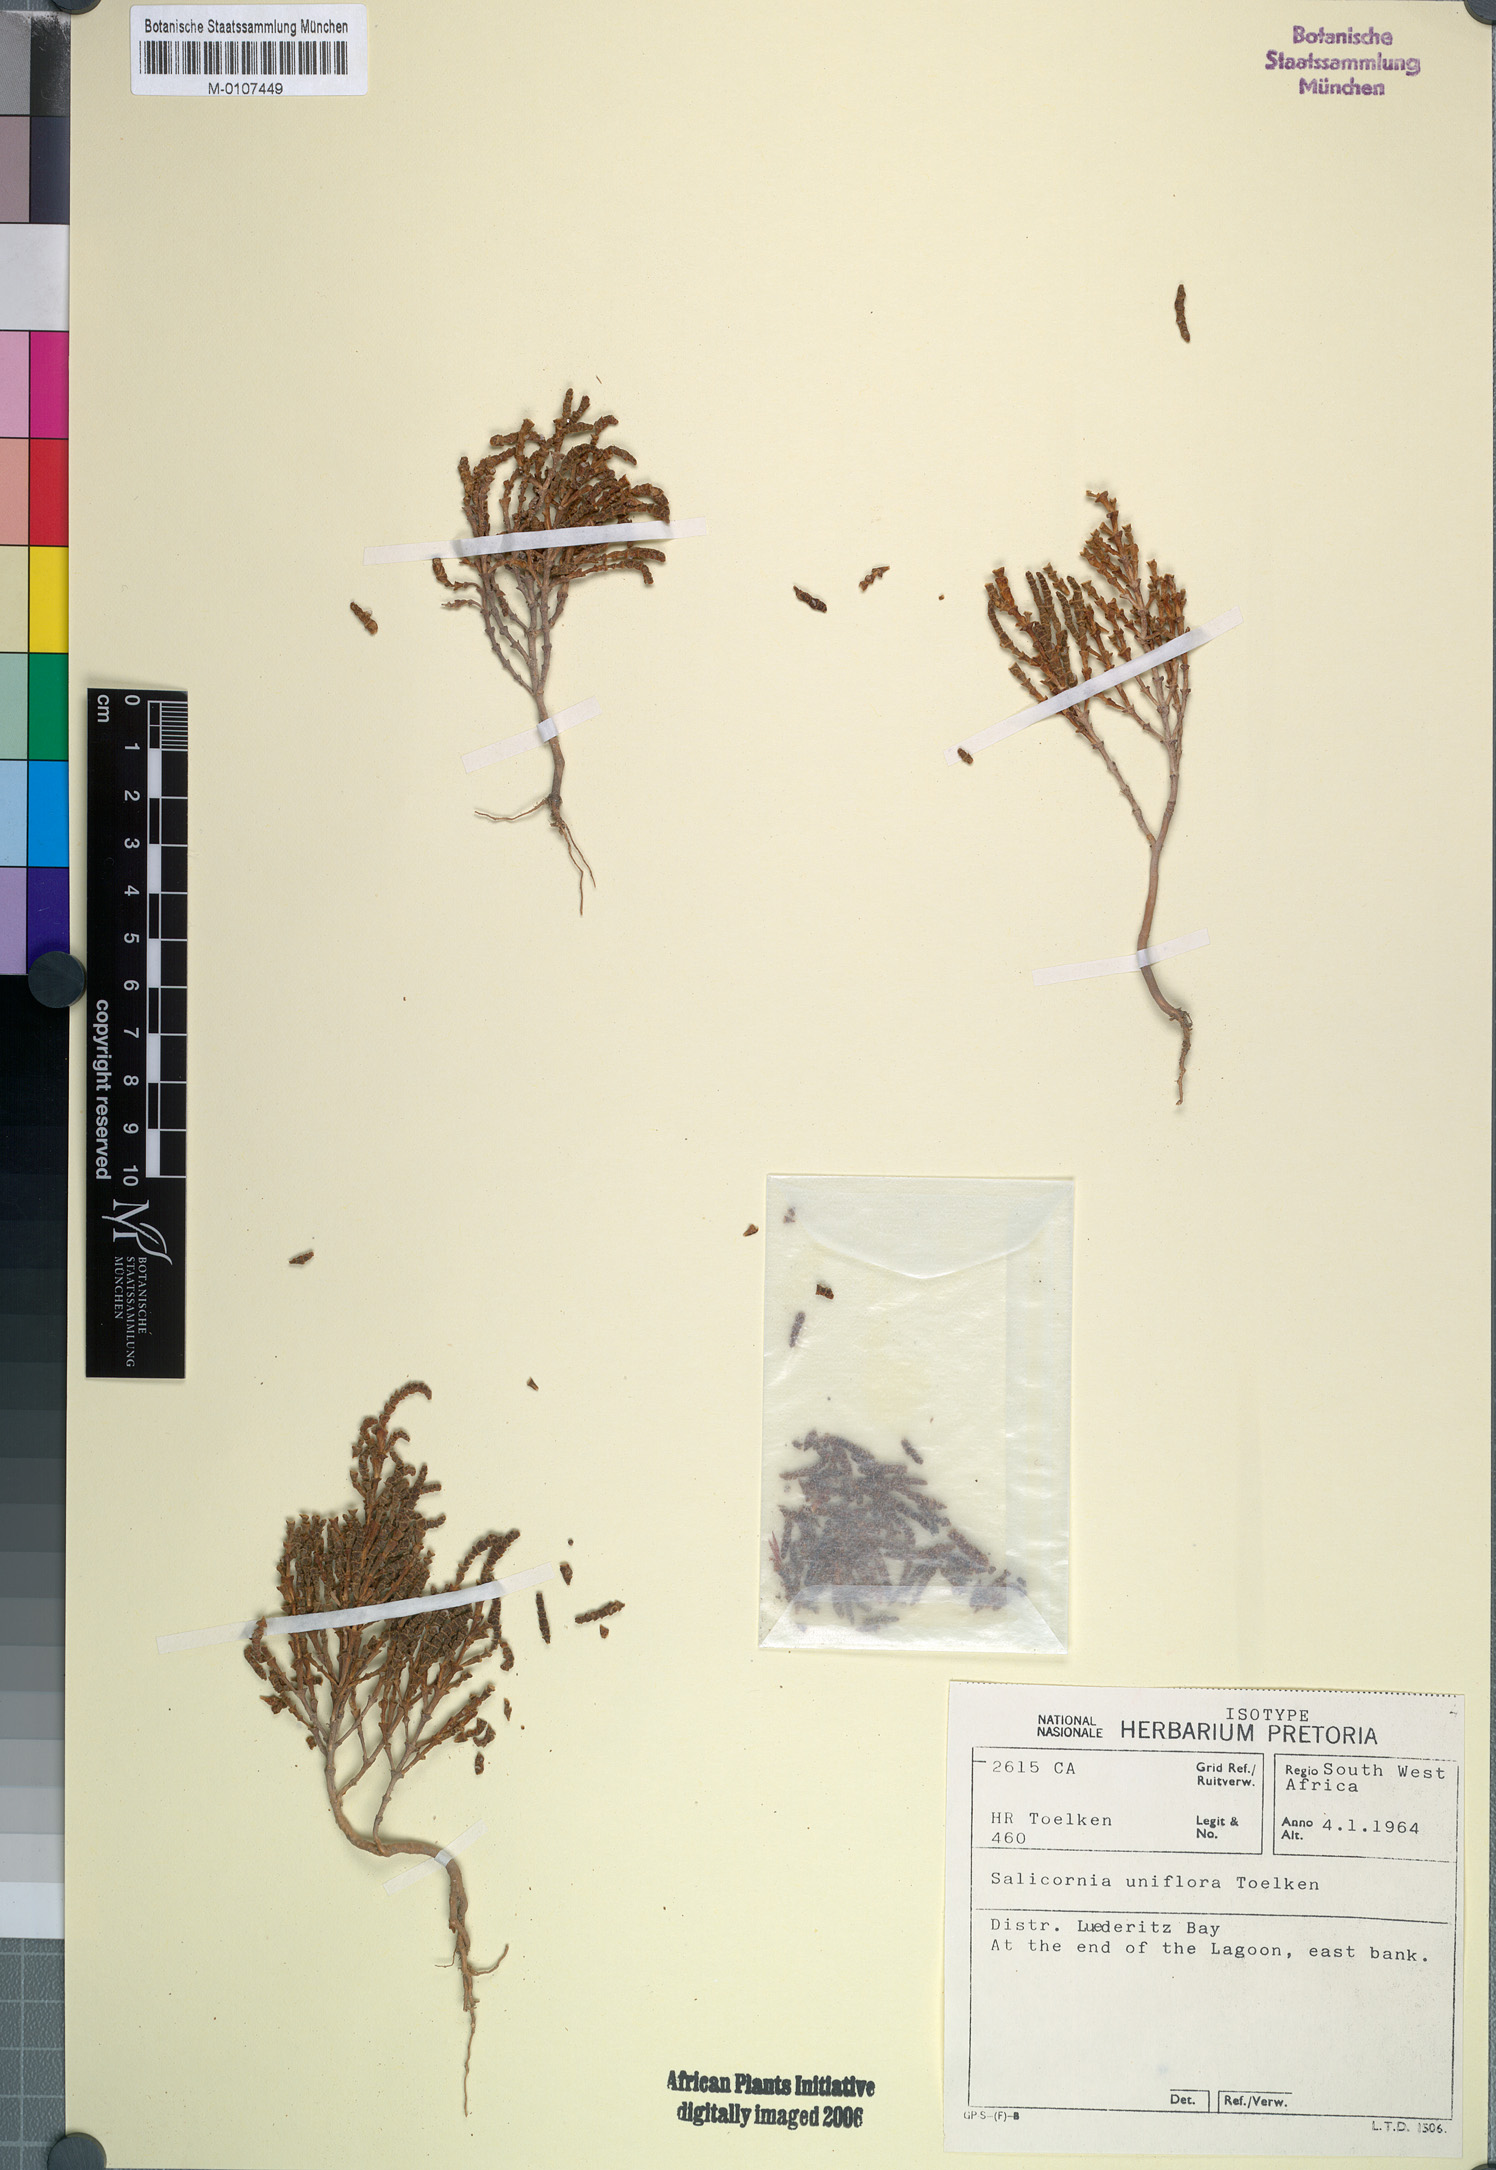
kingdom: Plantae
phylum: Tracheophyta
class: Magnoliopsida
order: Caryophyllales
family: Amaranthaceae
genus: Salicornia
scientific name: Salicornia uniflora
